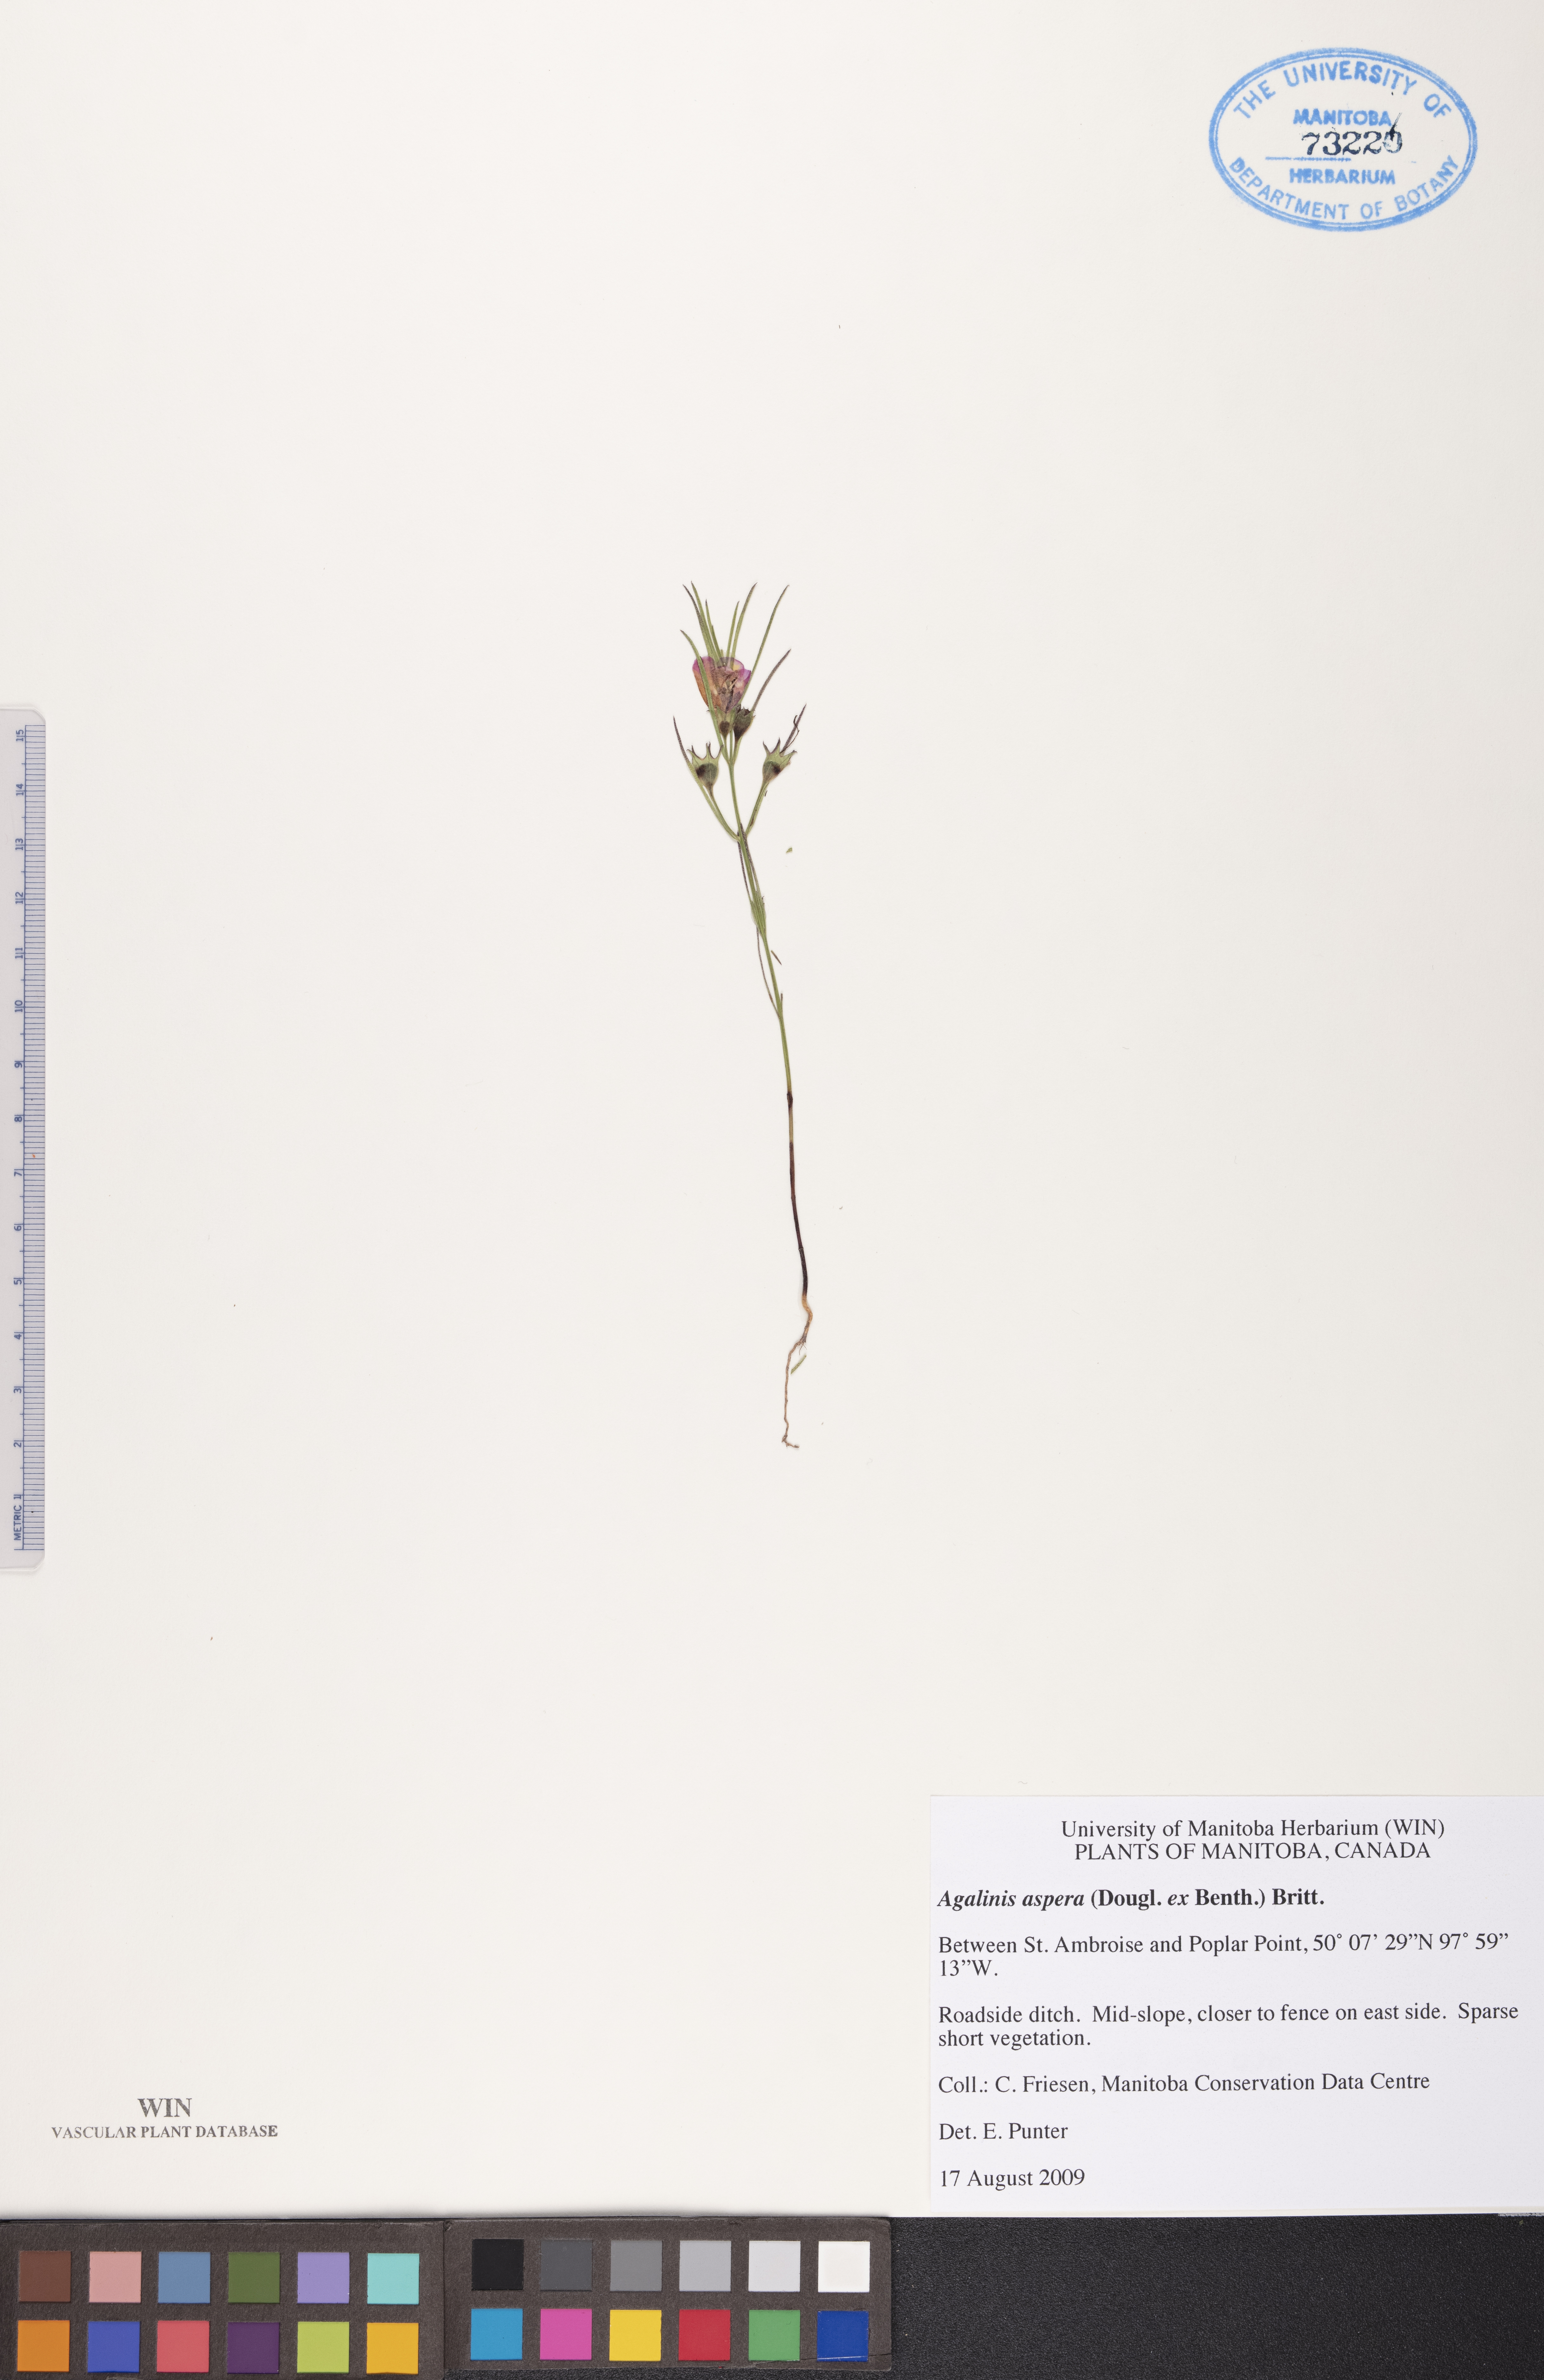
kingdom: Plantae
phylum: Tracheophyta
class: Magnoliopsida
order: Lamiales
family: Orobanchaceae
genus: Agalinis
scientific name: Agalinis aspera
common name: Rough agalinis
